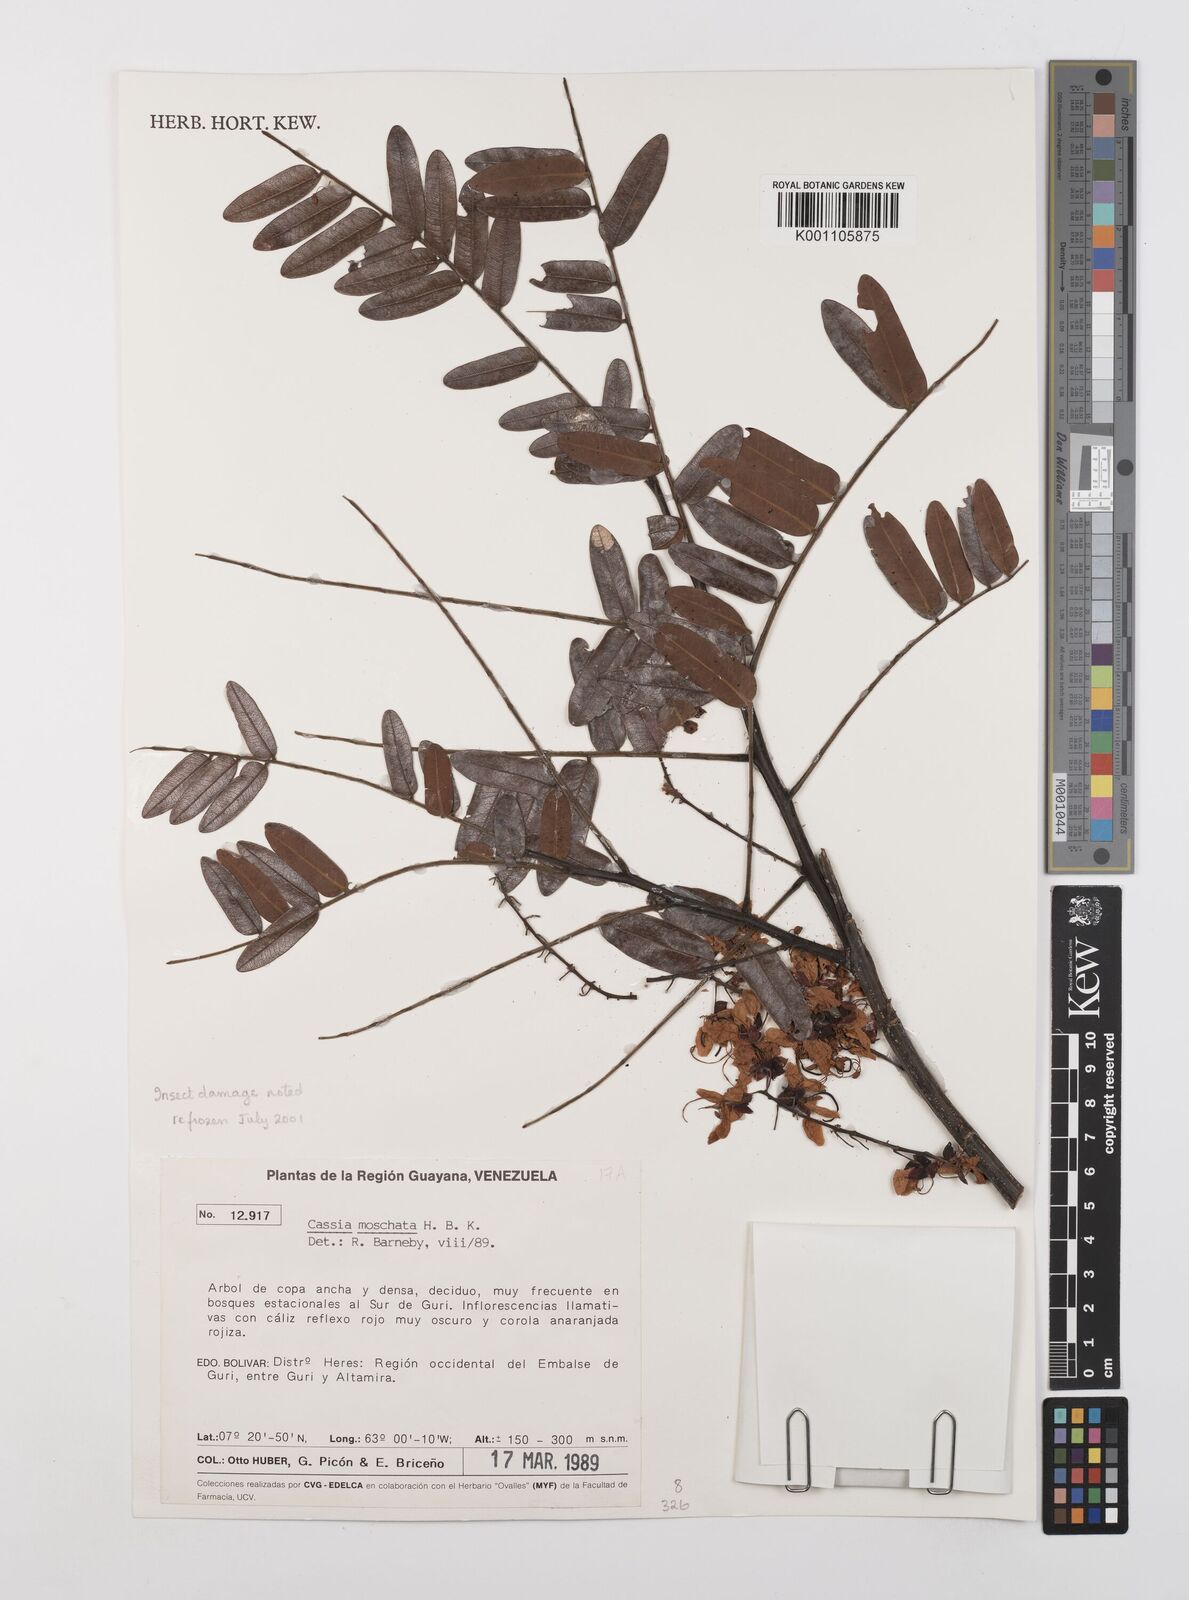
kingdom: Plantae
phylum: Tracheophyta
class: Magnoliopsida
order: Fabales
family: Fabaceae
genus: Cassia
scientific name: Cassia moschata
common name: Bronze shower tree
